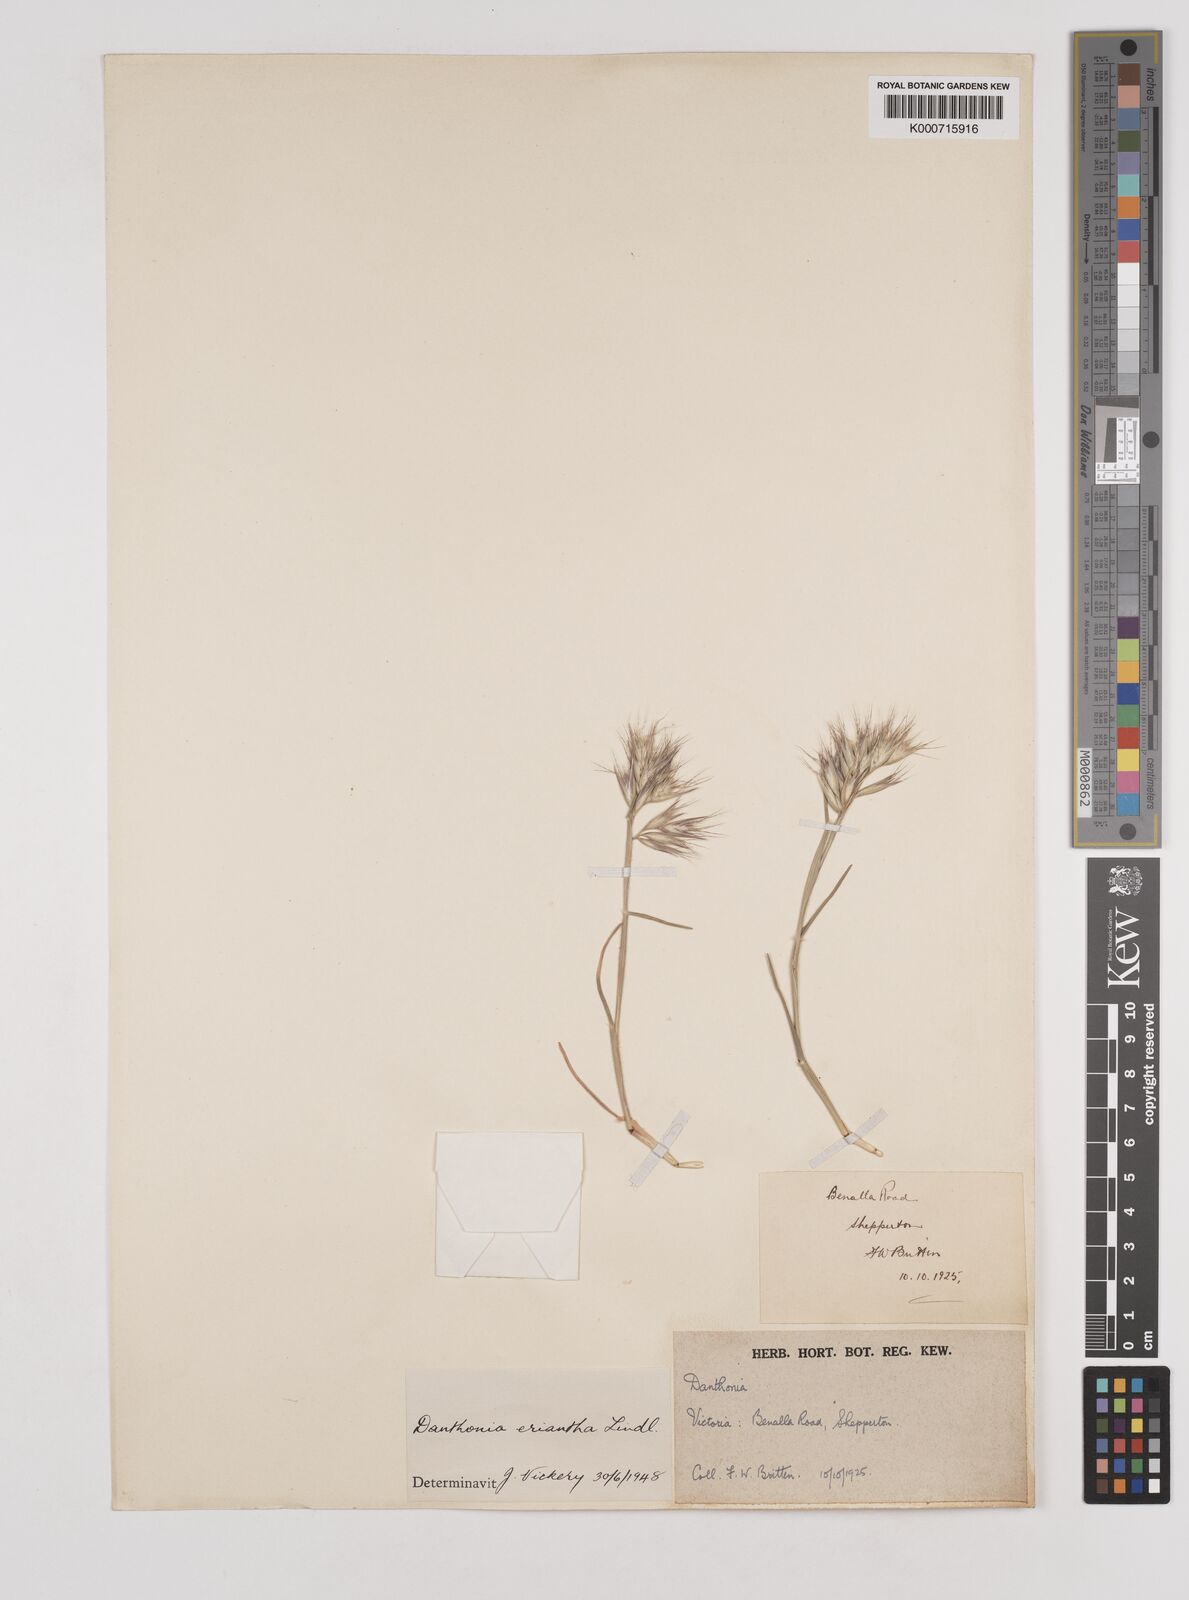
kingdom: Plantae
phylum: Tracheophyta
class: Liliopsida
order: Poales
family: Poaceae
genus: Rytidosperma
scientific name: Rytidosperma erianthum
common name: Hill wallaby grass
